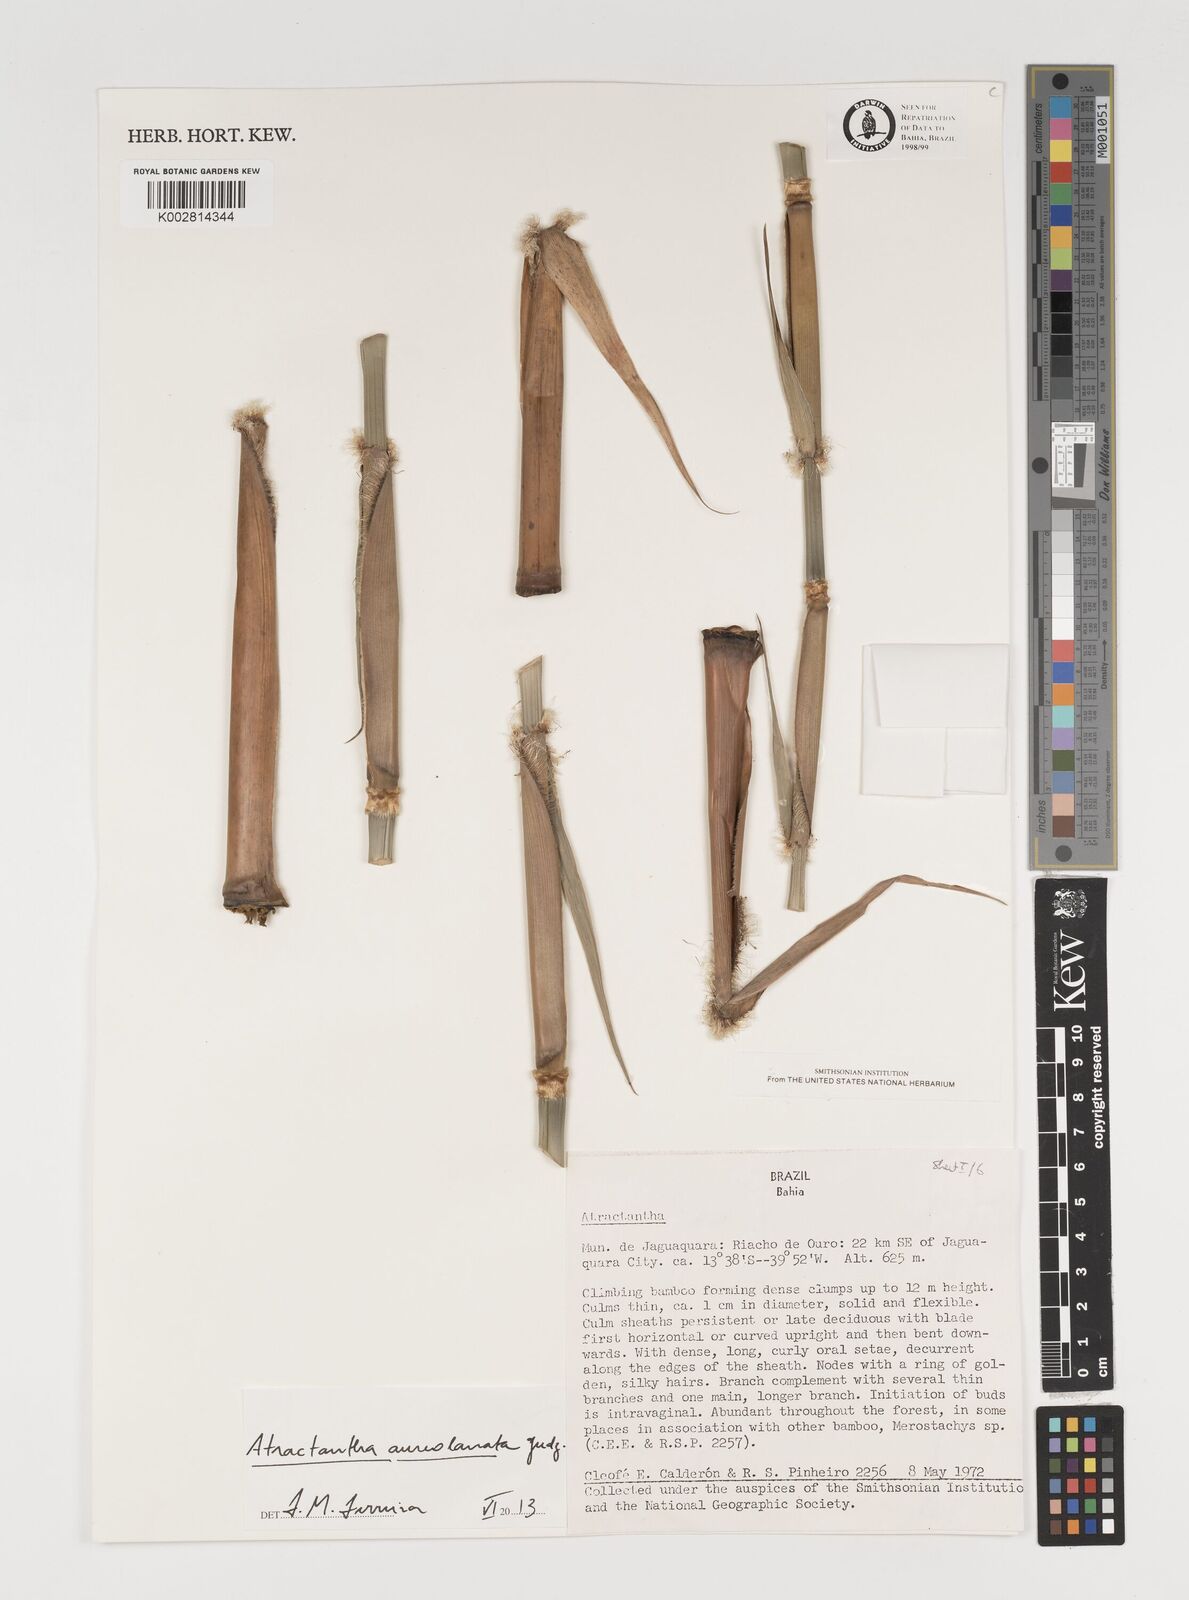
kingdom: Plantae
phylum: Tracheophyta
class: Liliopsida
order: Poales
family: Poaceae
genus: Atractantha
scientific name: Atractantha aureolanata
